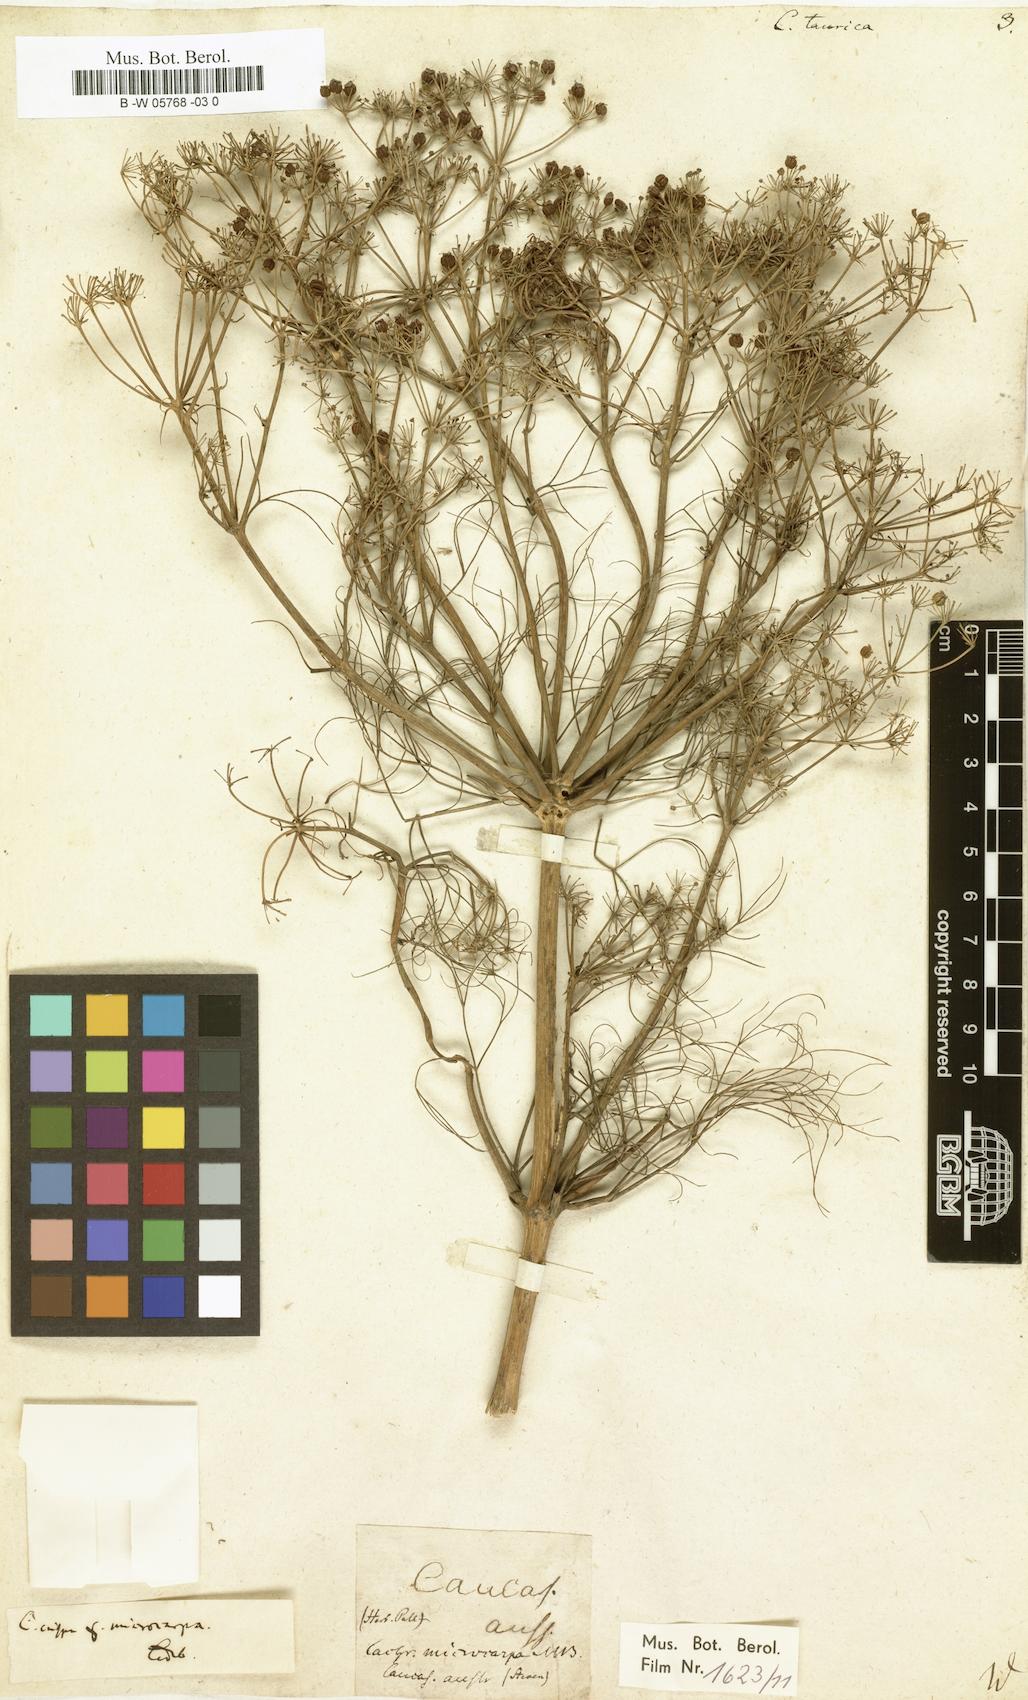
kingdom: Plantae
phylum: Tracheophyta
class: Magnoliopsida
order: Apiales
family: Apiaceae
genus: Trinia
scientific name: Trinia crithmifolia
